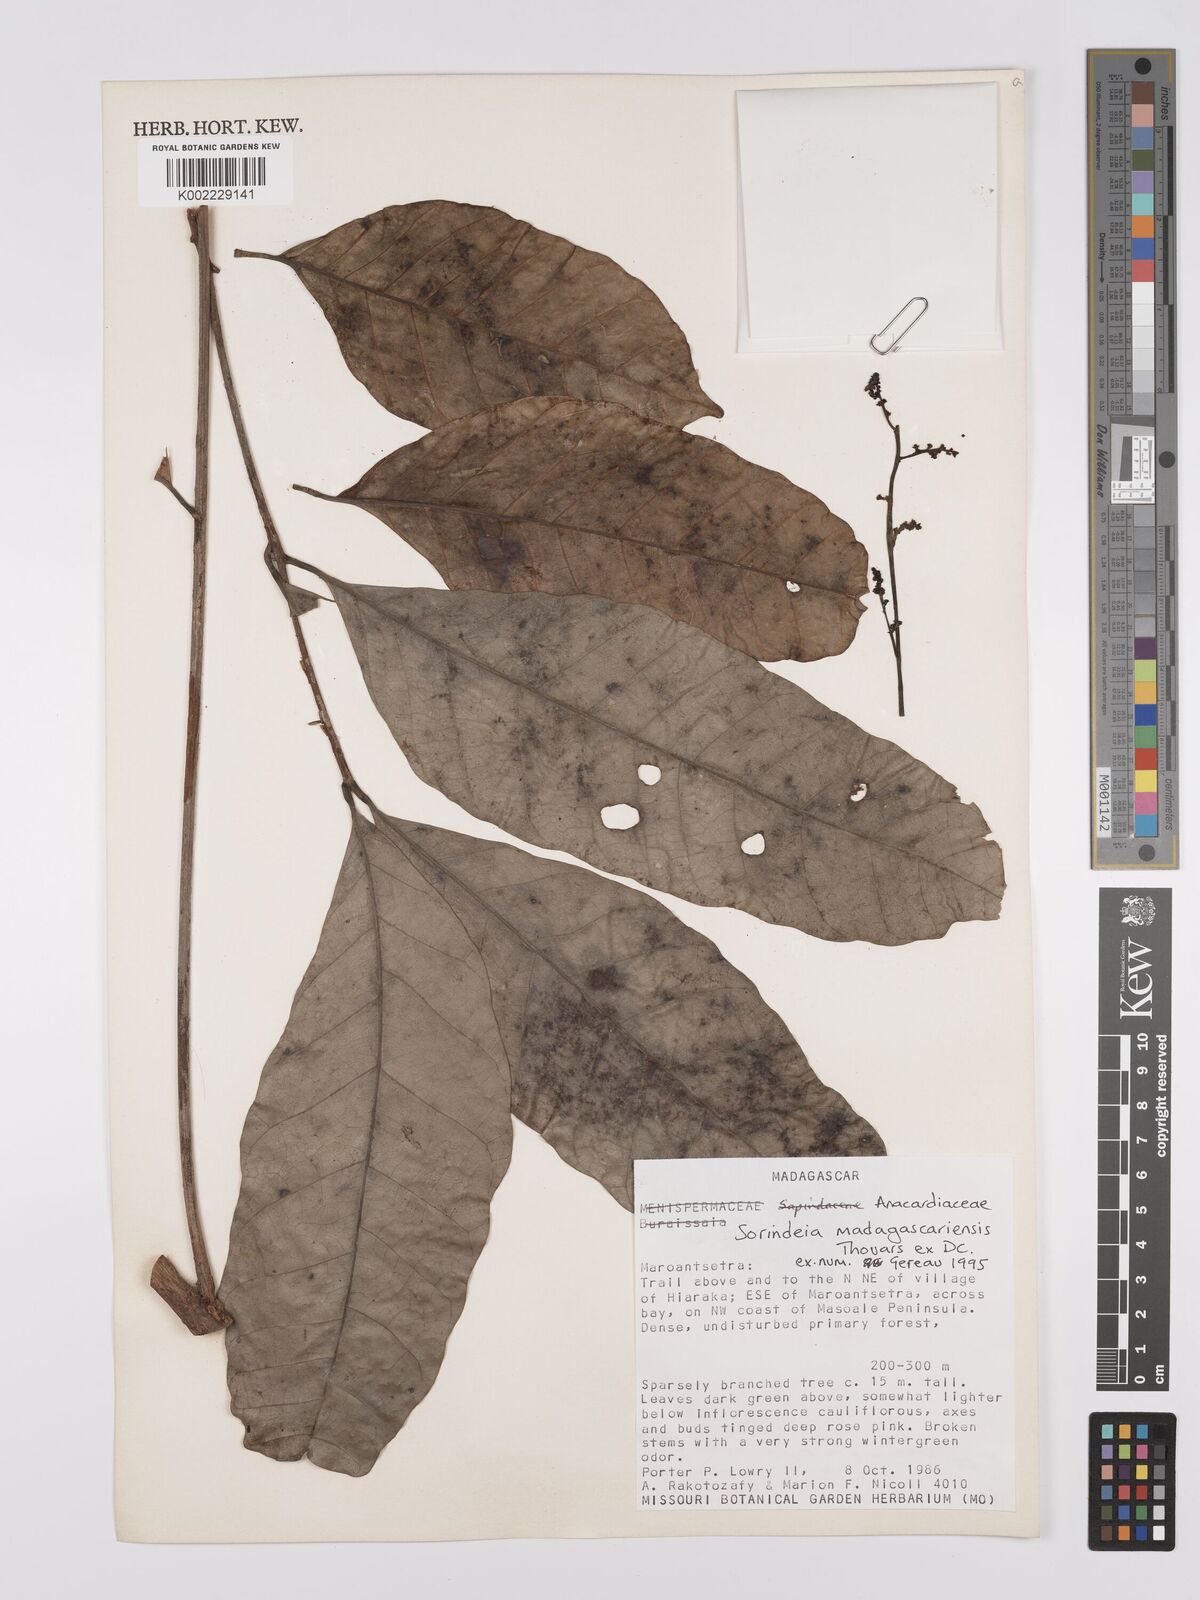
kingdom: Plantae
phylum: Tracheophyta
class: Magnoliopsida
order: Sapindales
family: Anacardiaceae
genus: Sorindeia
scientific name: Sorindeia madagascariensis
